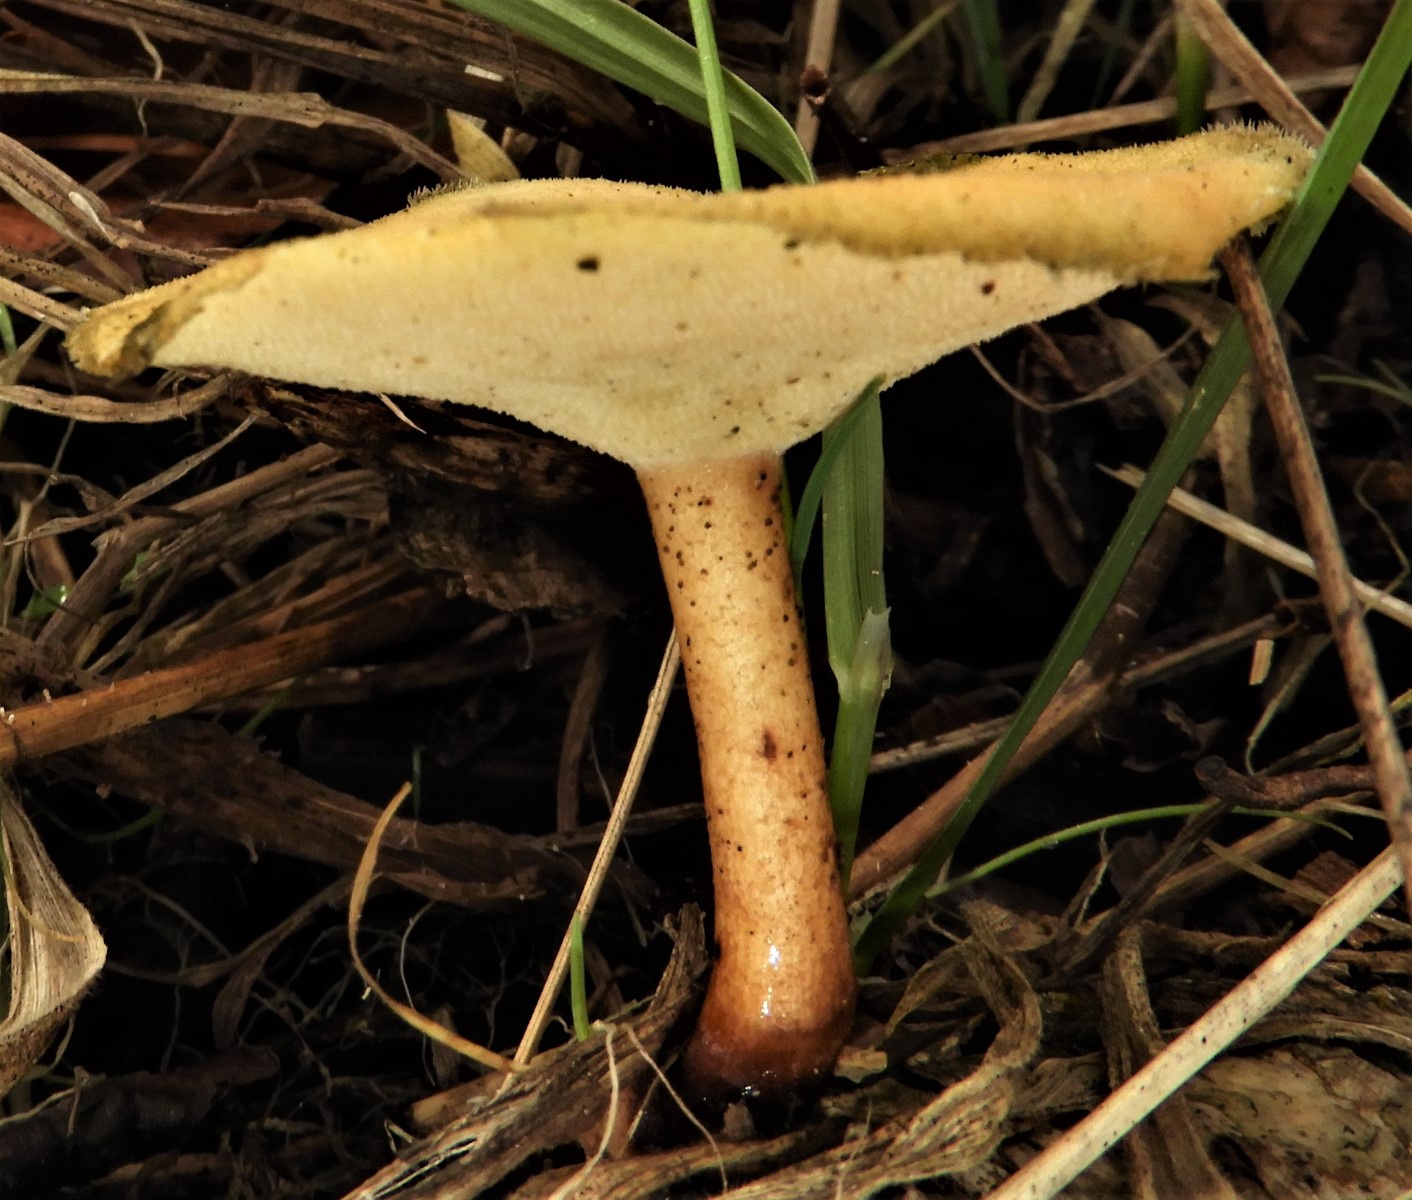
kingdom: Fungi
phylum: Basidiomycota
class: Agaricomycetes
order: Polyporales
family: Polyporaceae
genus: Lentinus
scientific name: Lentinus brumalis
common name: vinter-stilkporesvamp
